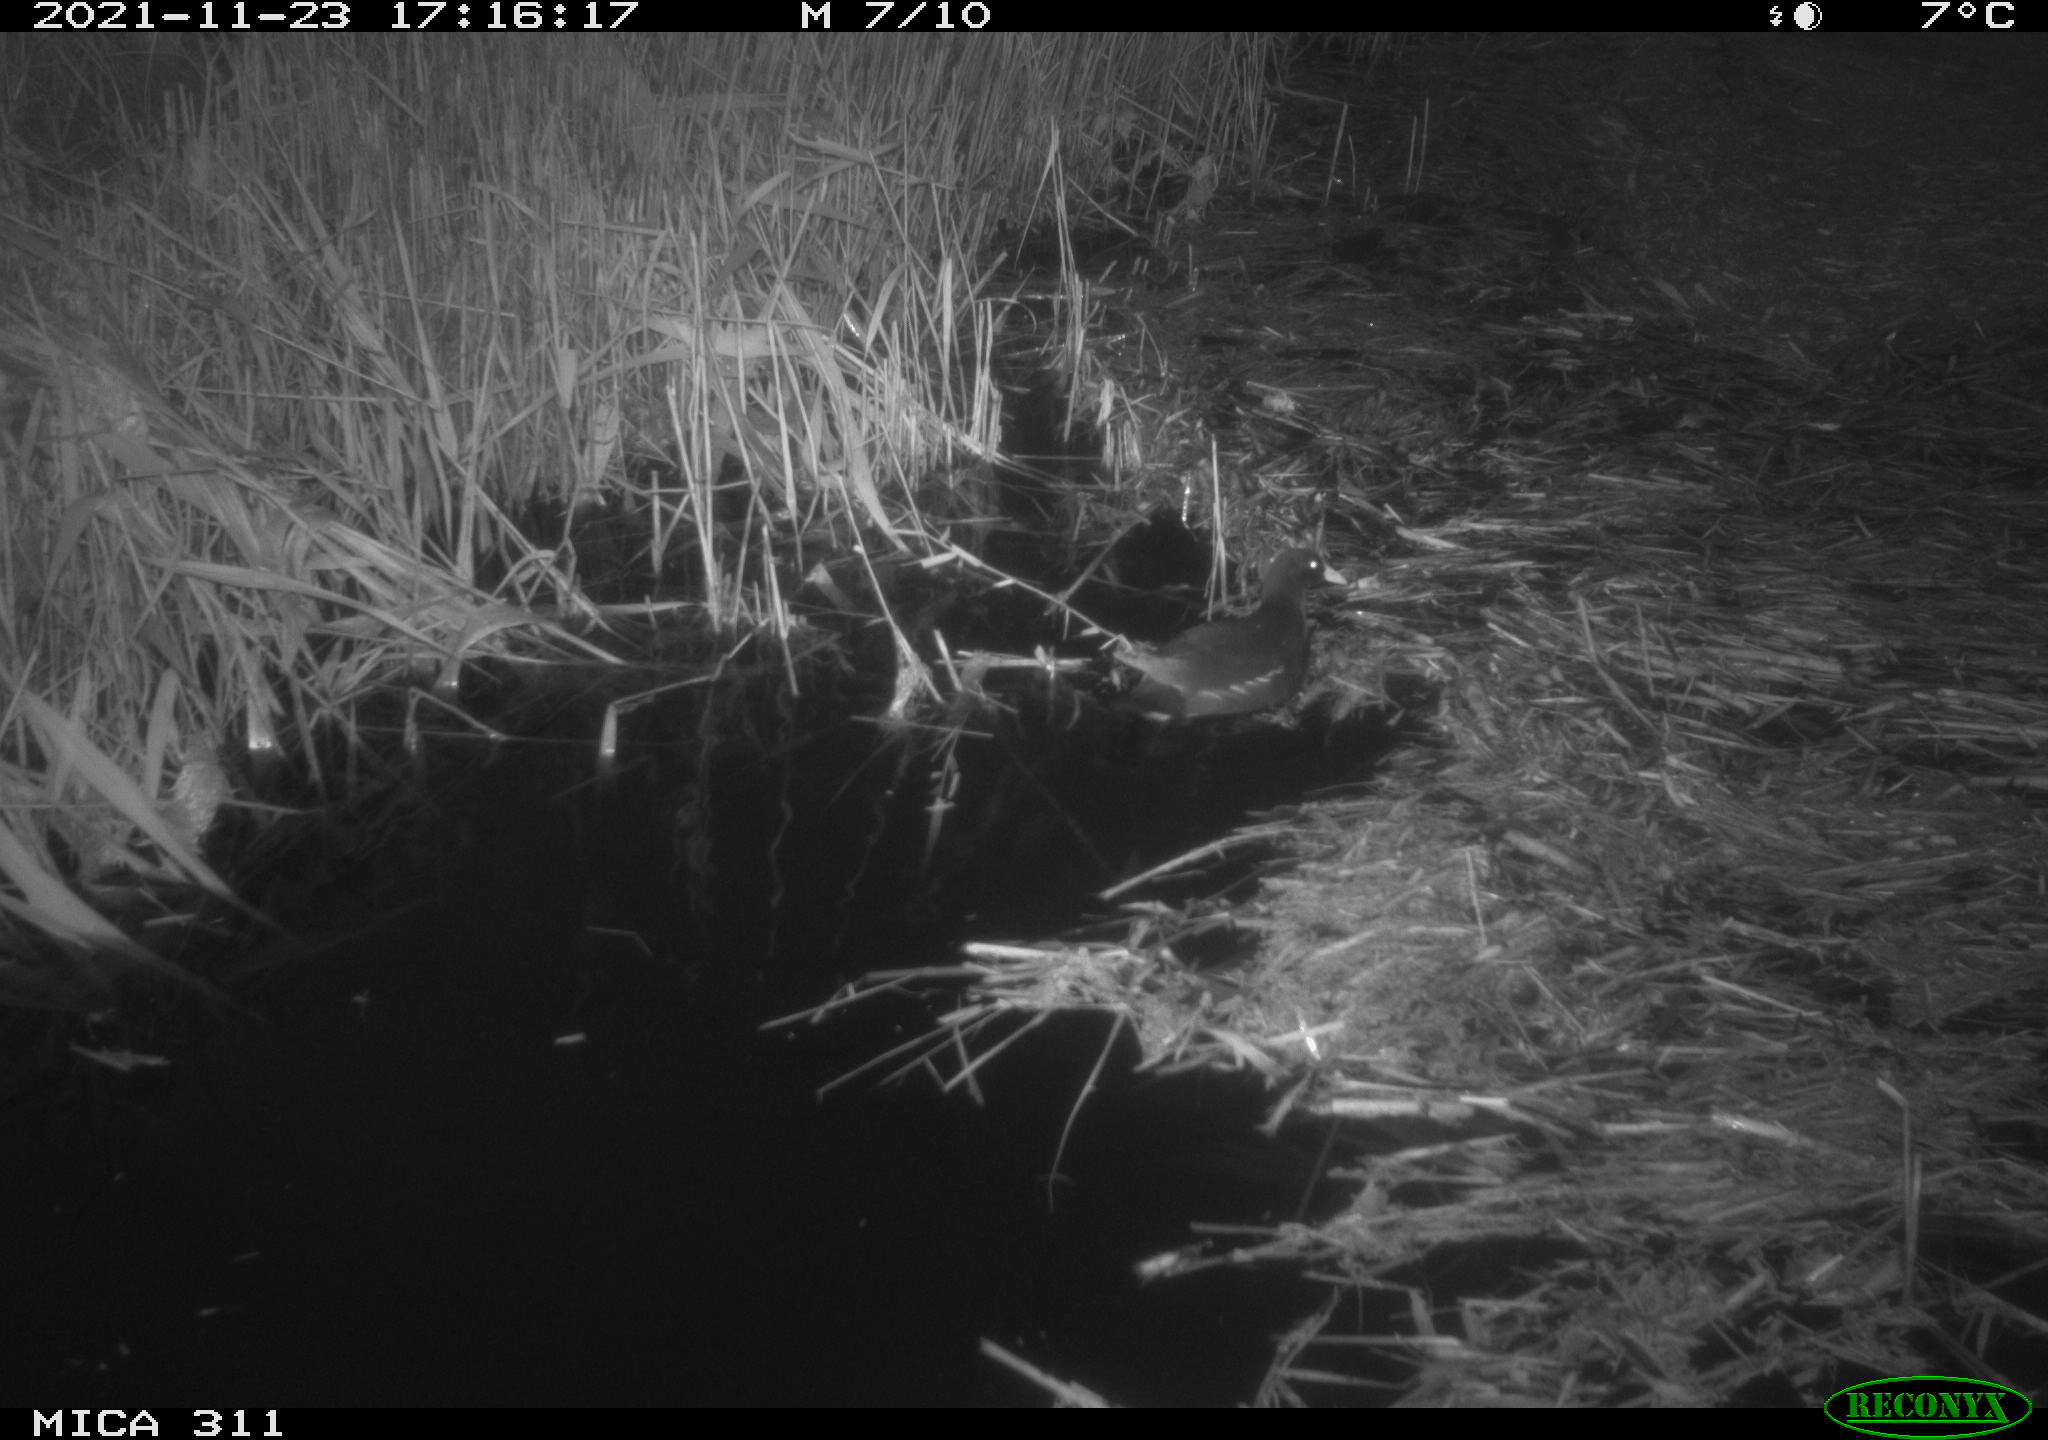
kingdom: Animalia
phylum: Chordata
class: Aves
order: Gruiformes
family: Rallidae
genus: Gallinula
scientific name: Gallinula chloropus
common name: Common moorhen
